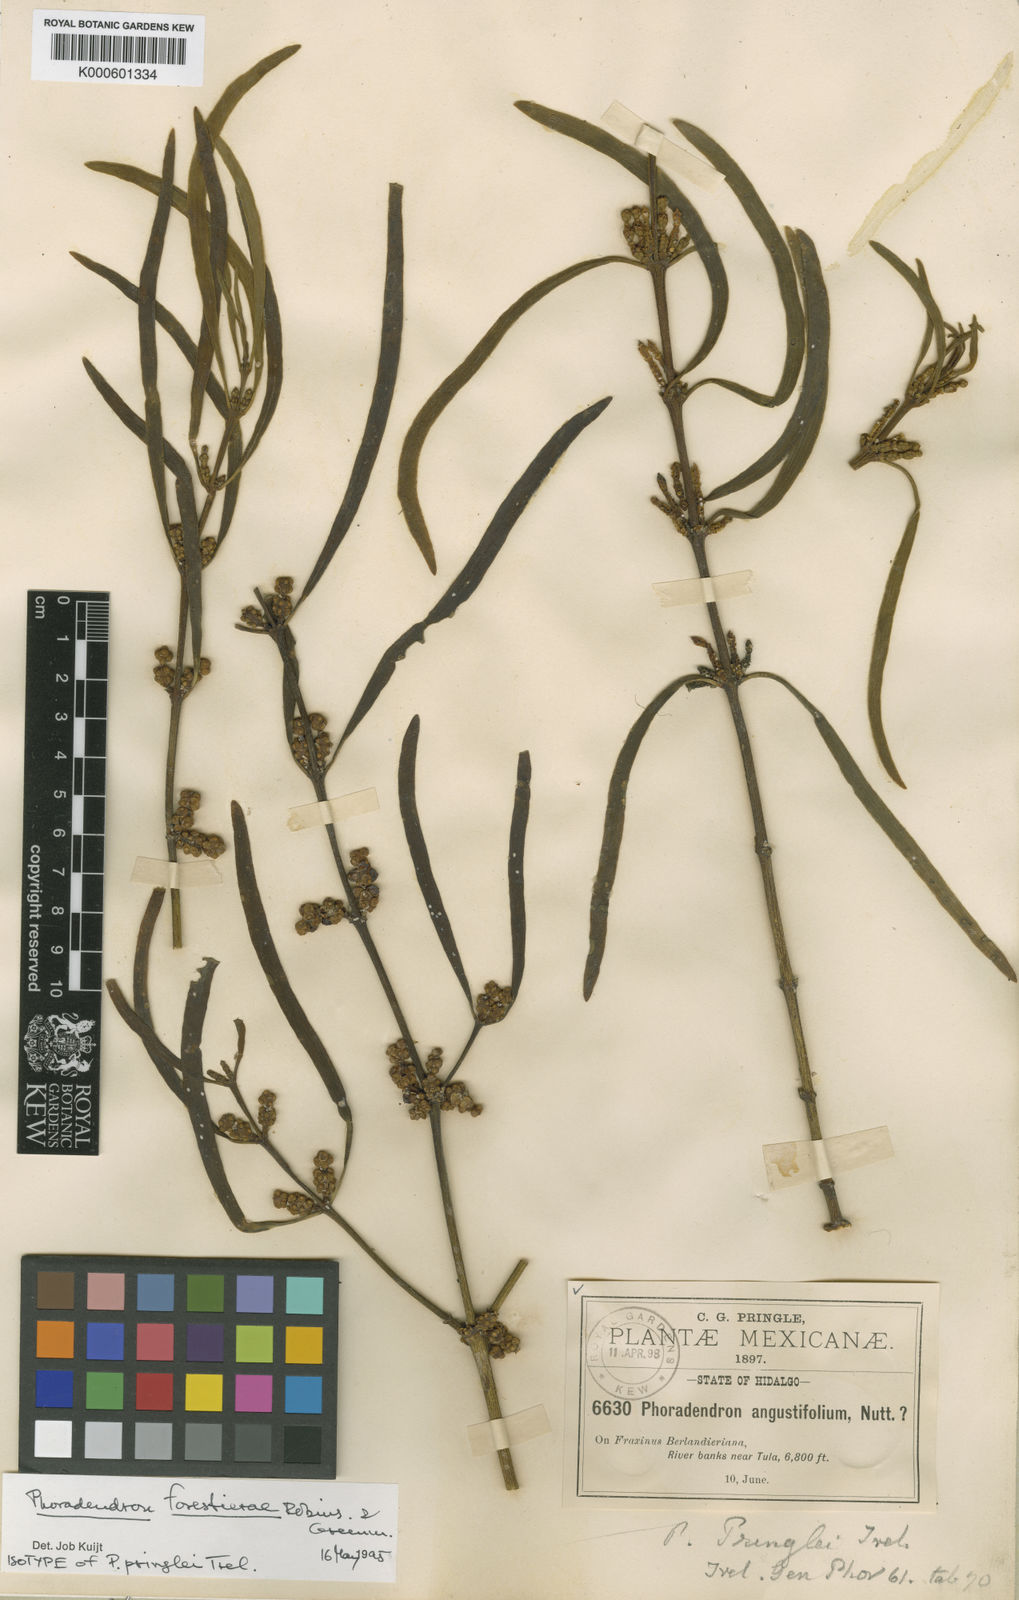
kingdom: Plantae
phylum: Tracheophyta
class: Magnoliopsida
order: Santalales
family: Viscaceae
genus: Phoradendron
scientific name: Phoradendron forestierae
